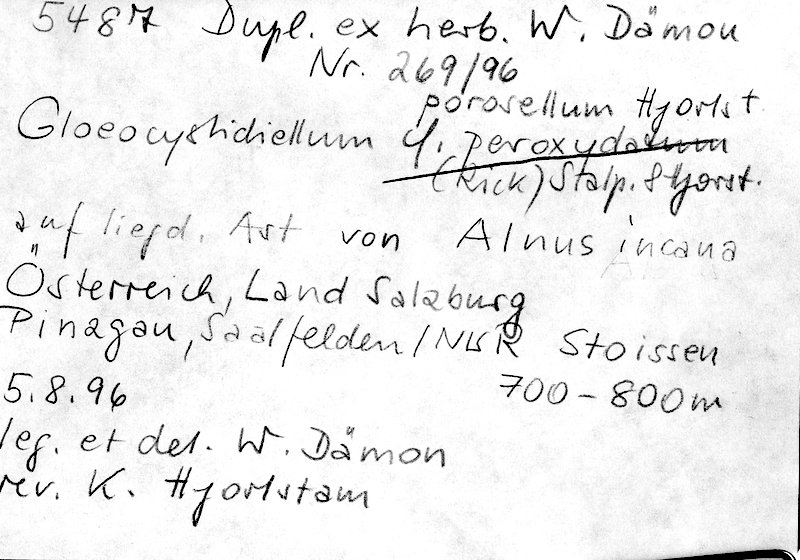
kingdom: Fungi
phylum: Basidiomycota
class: Agaricomycetes
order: Russulales
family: Stereaceae
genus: Gloeocystidiellum
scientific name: Gloeocystidiellum porosellum
